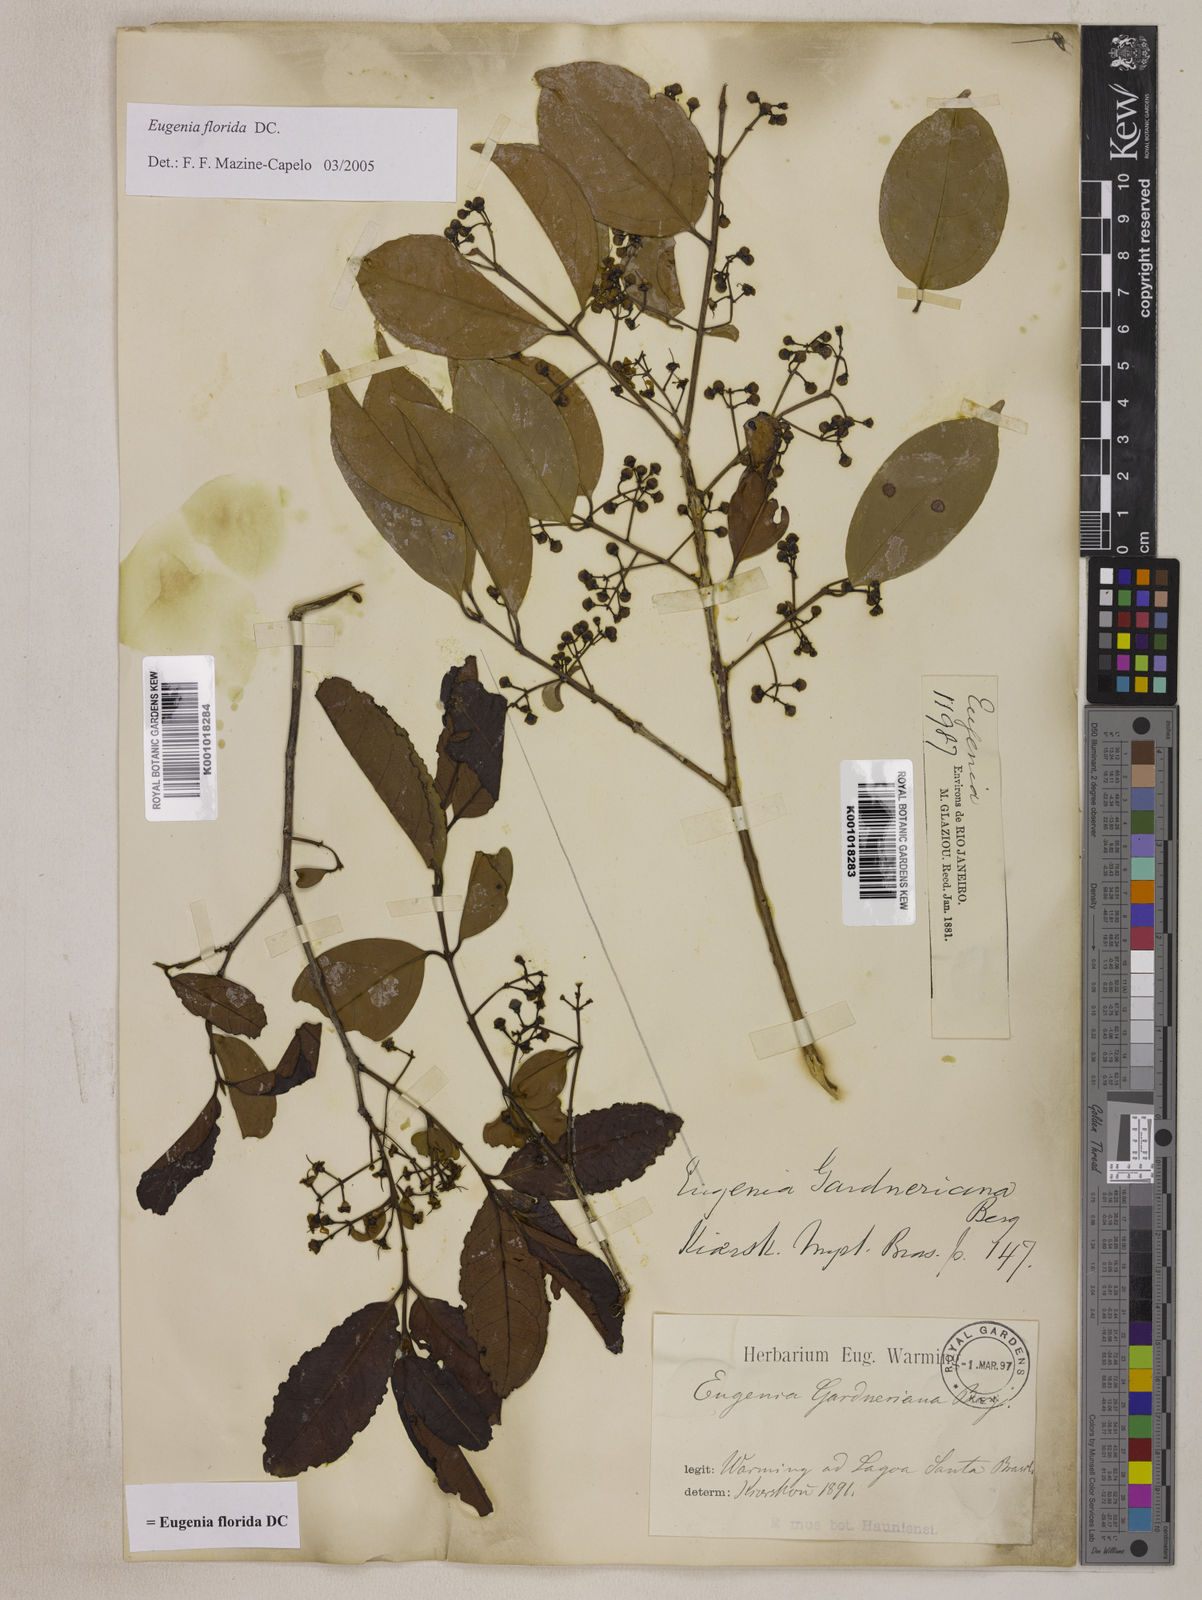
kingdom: Plantae
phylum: Tracheophyta
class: Magnoliopsida
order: Myrtales
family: Myrtaceae
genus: Eugenia
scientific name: Eugenia florida
